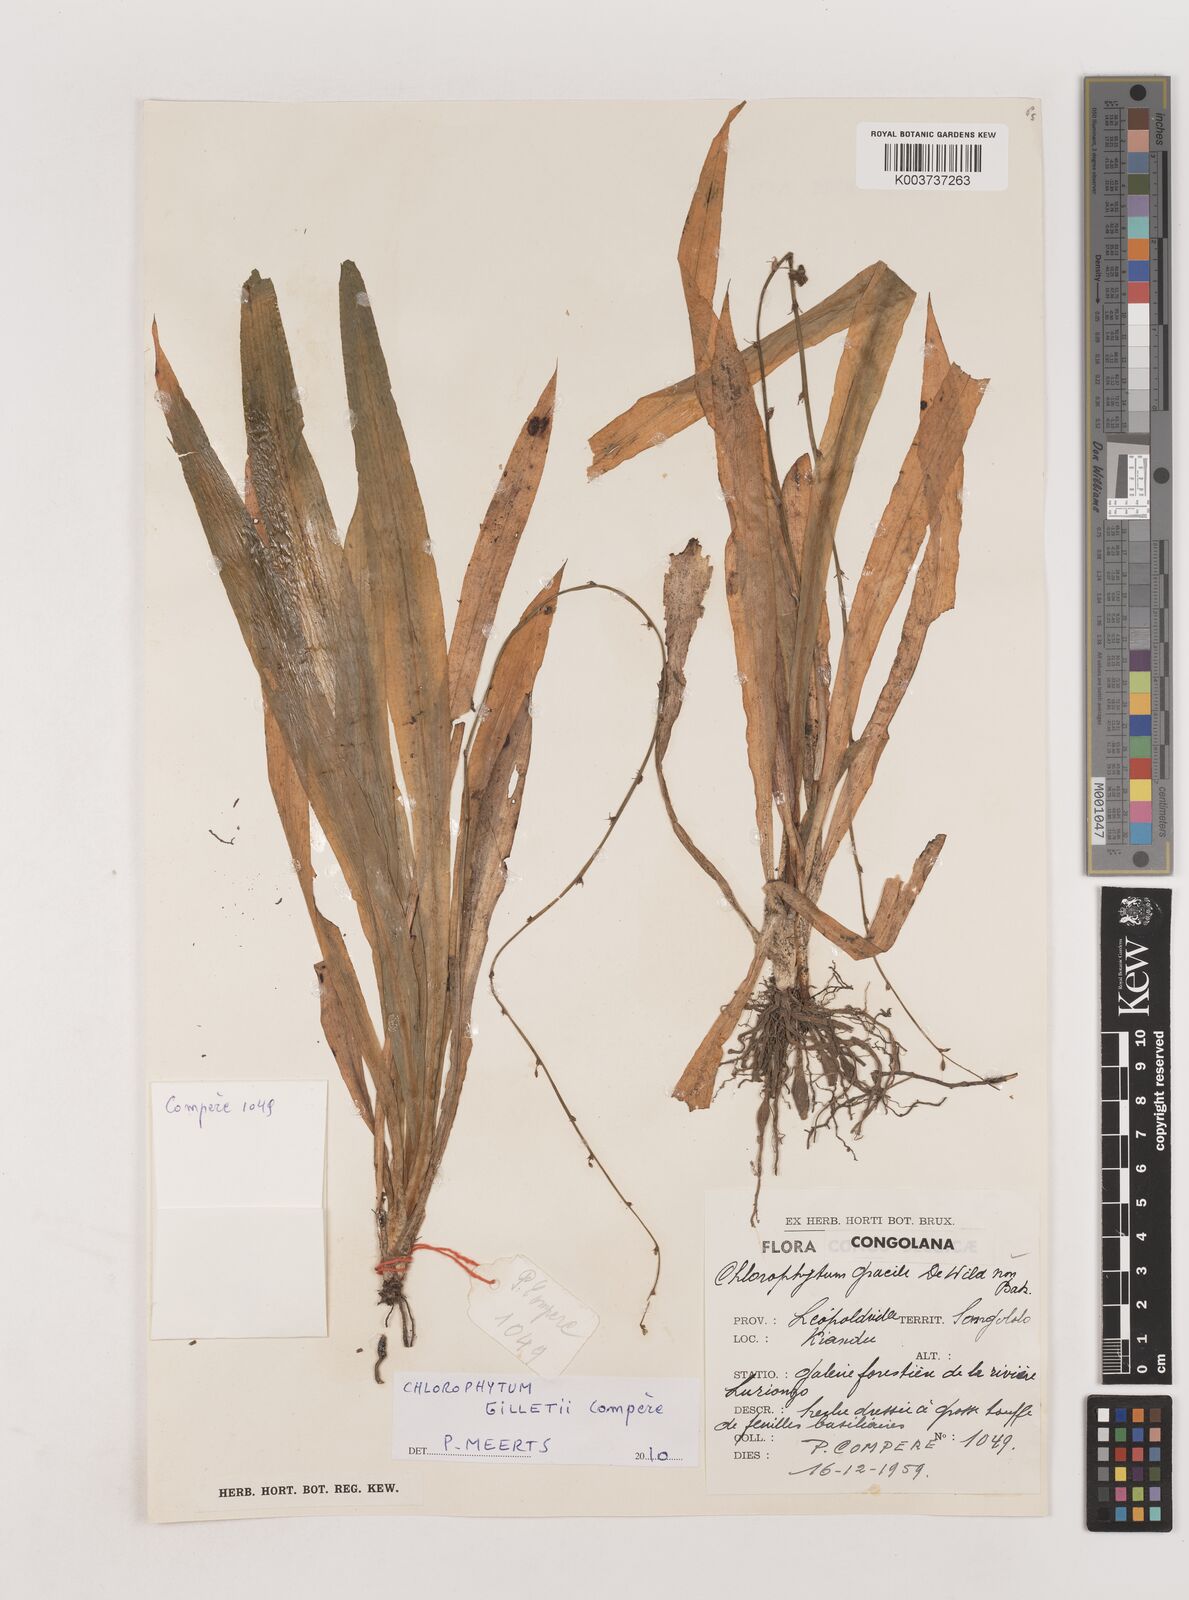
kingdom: Plantae
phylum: Tracheophyta
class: Liliopsida
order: Asparagales
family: Asparagaceae
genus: Chlorophytum
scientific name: Chlorophytum debile
